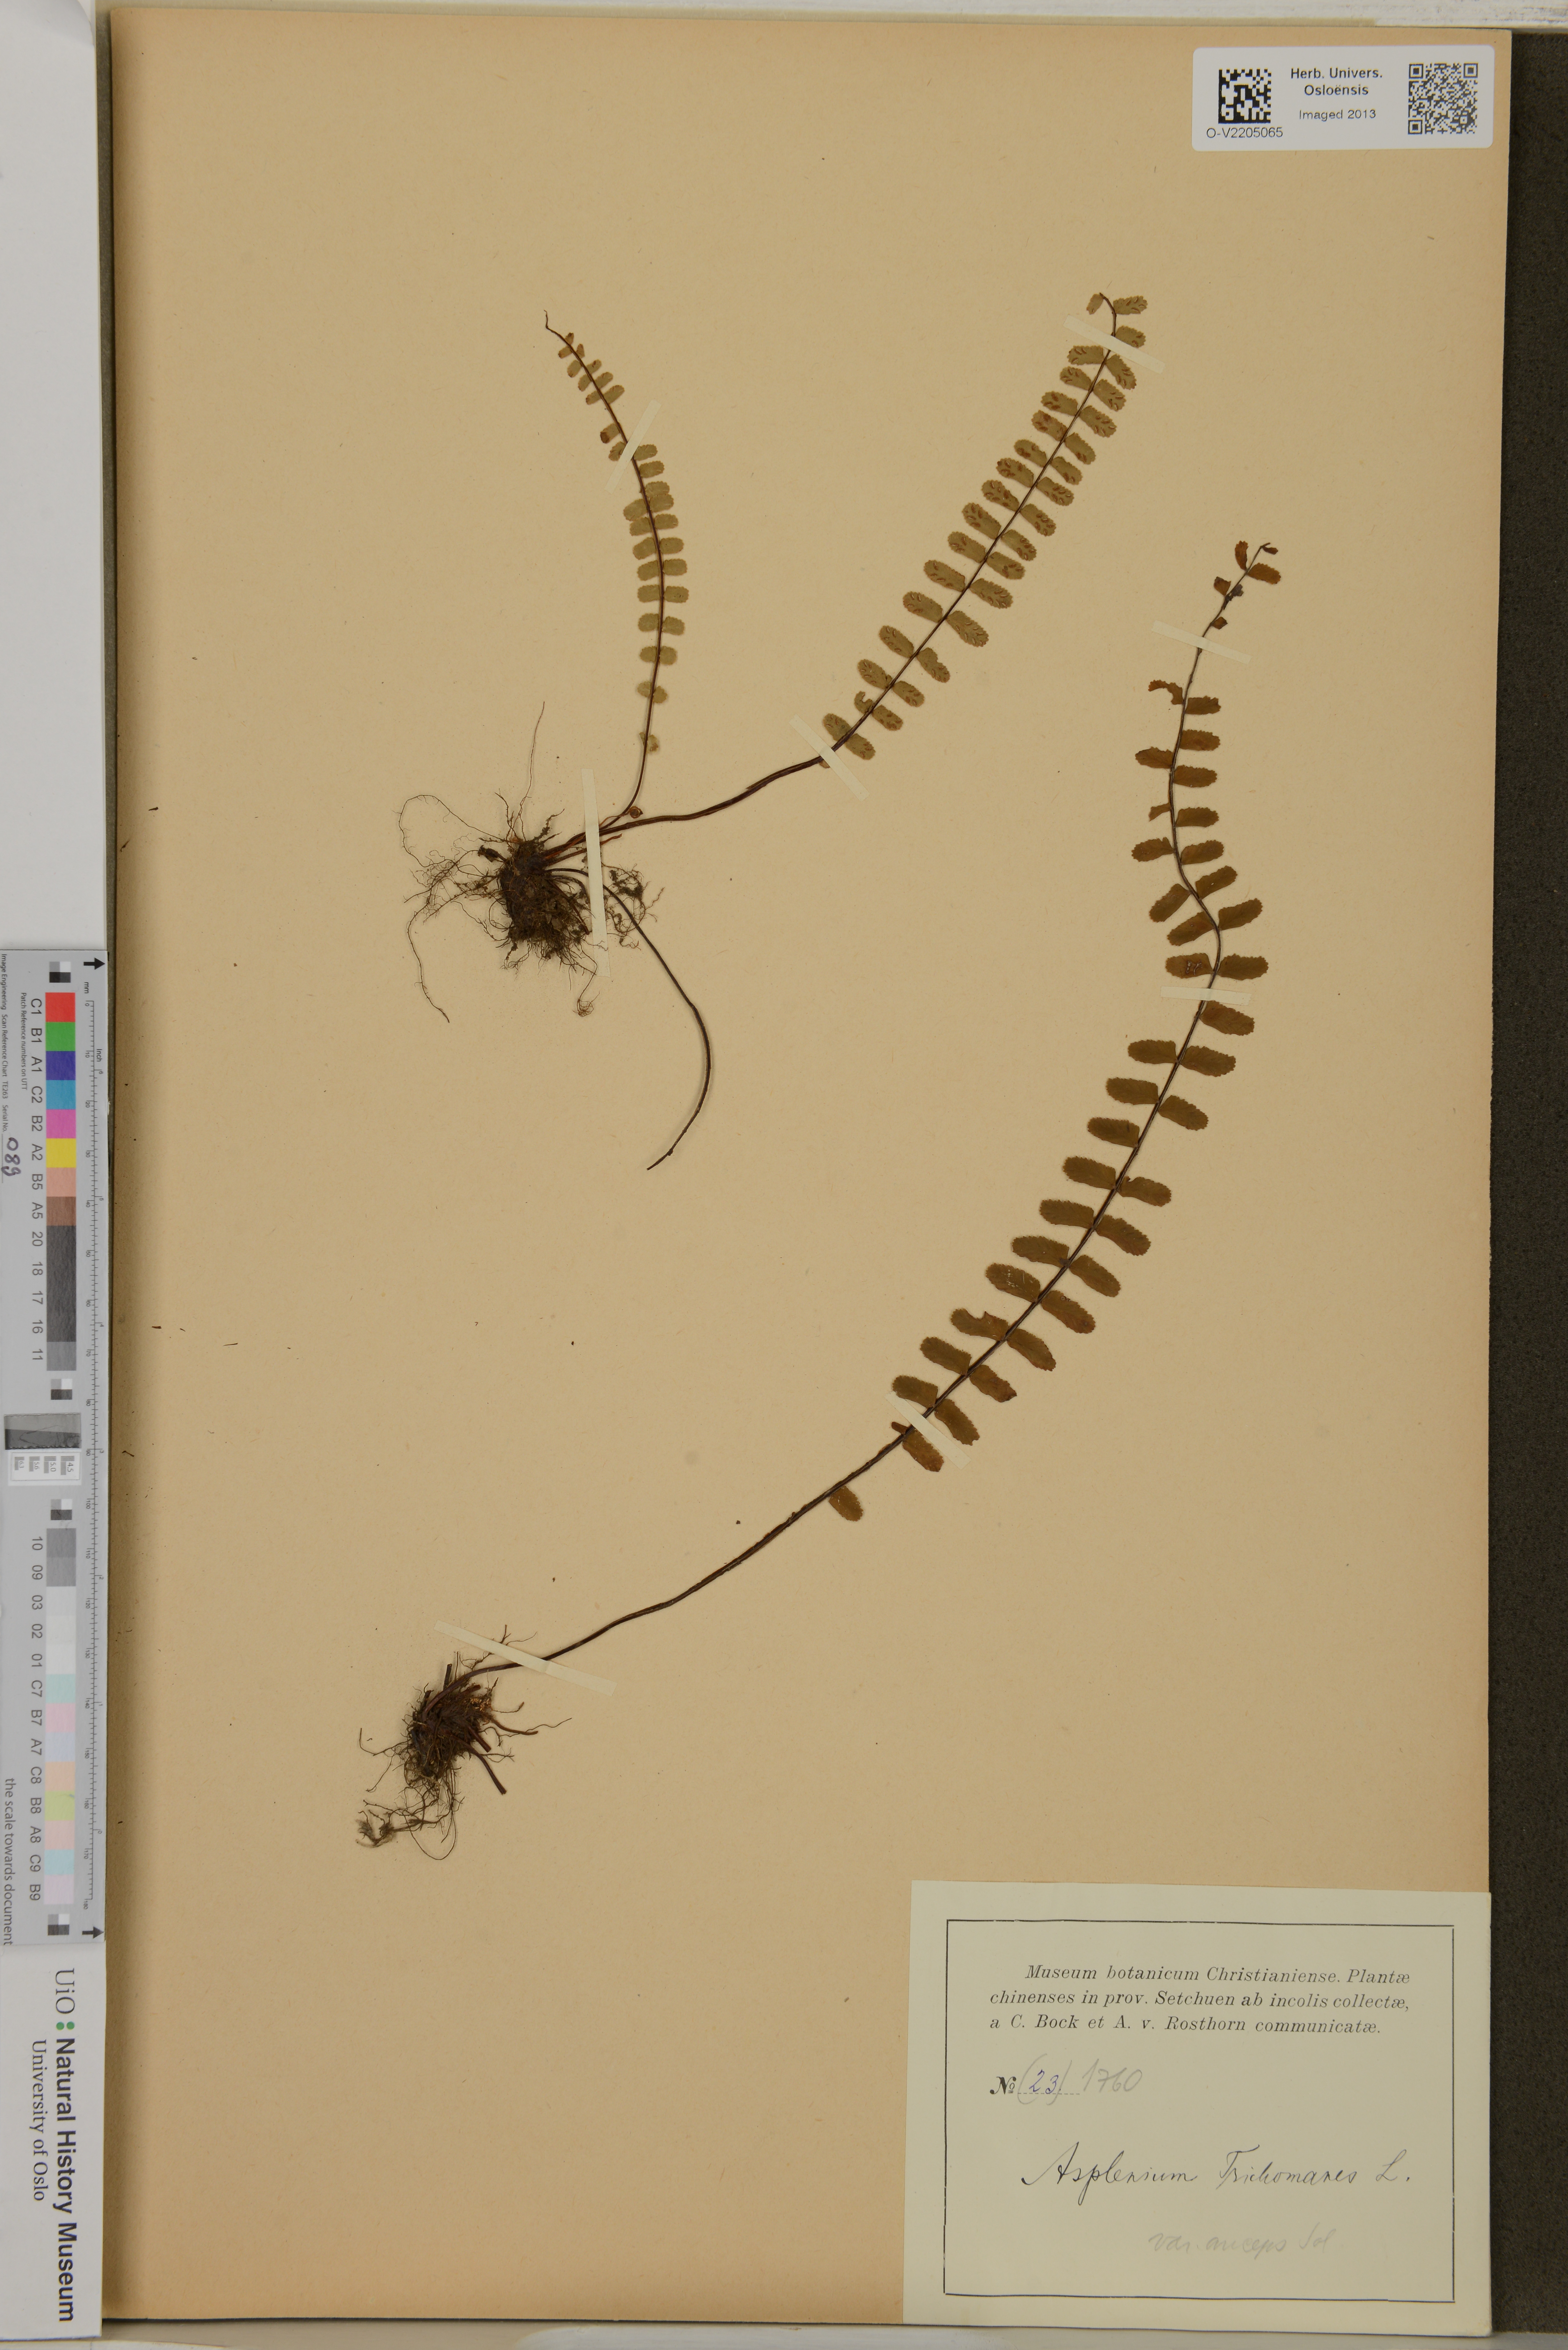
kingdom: Plantae
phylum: Tracheophyta
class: Polypodiopsida
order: Polypodiales
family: Aspleniaceae
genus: Asplenium
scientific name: Asplenium trichomanes
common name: Maidenhair spleenwort
